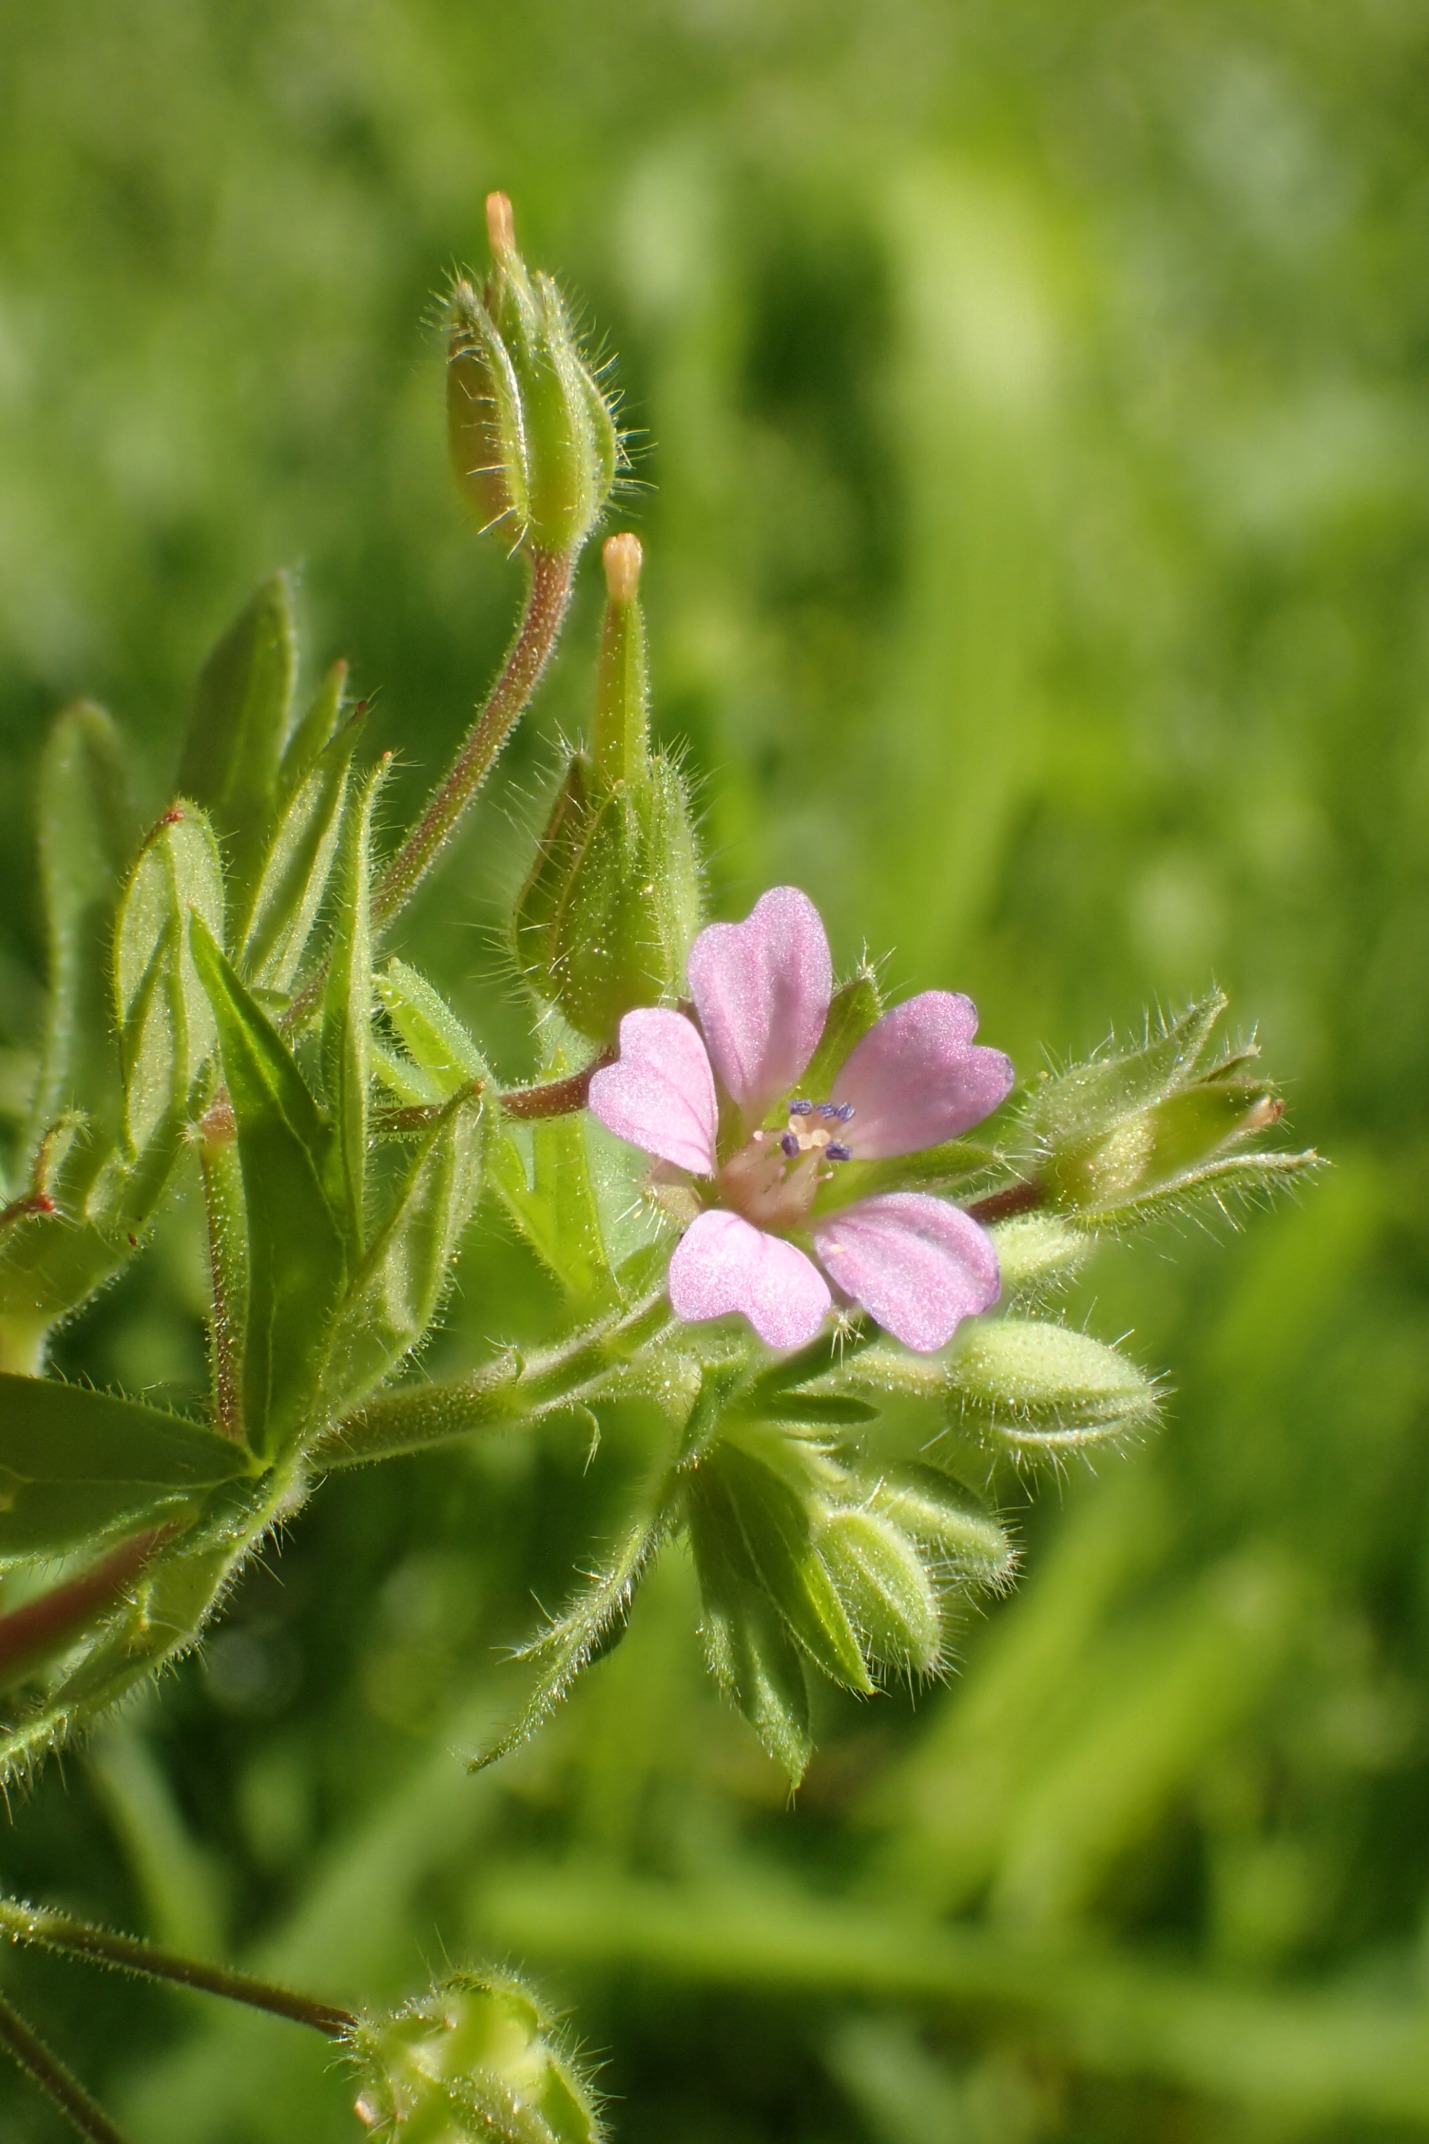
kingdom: Plantae
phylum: Tracheophyta
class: Magnoliopsida
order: Geraniales
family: Geraniaceae
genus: Geranium
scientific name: Geranium pusillum
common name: Liden storkenæb
